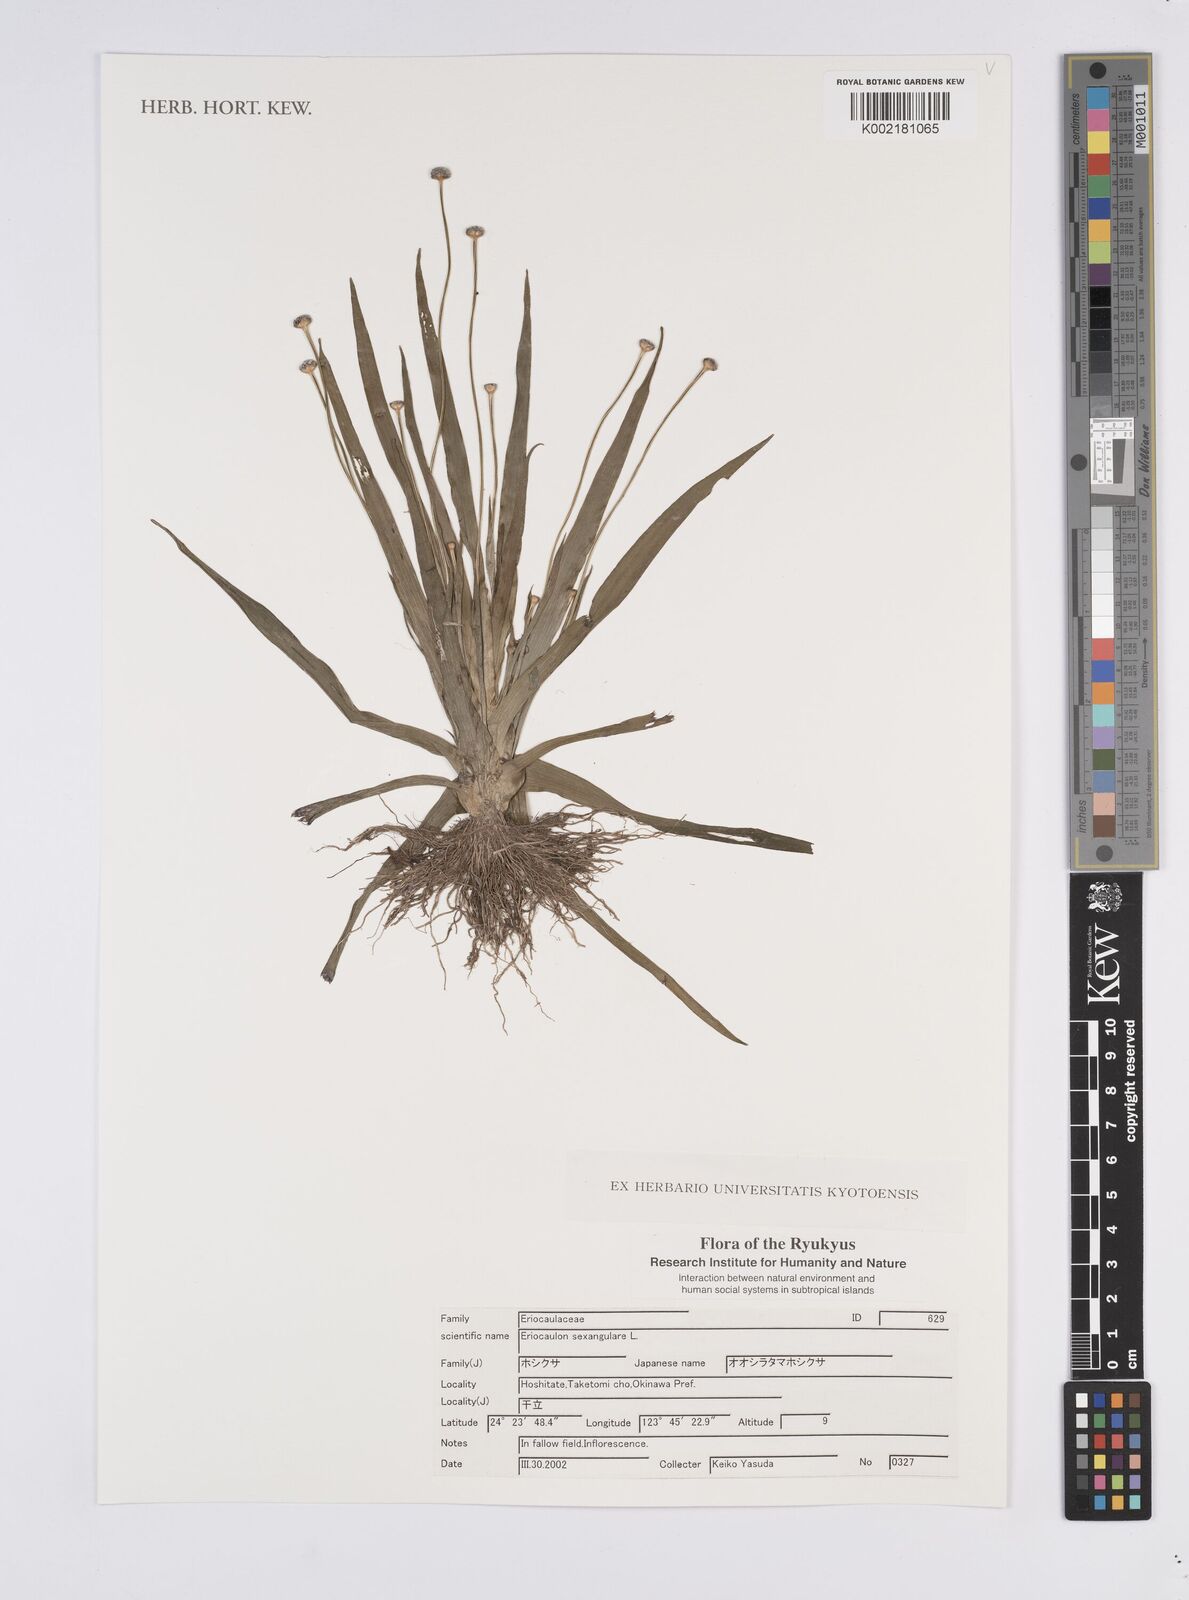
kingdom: Plantae
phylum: Tracheophyta
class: Liliopsida
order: Poales
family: Eriocaulaceae
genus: Eriocaulon
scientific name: Eriocaulon sexangulare
